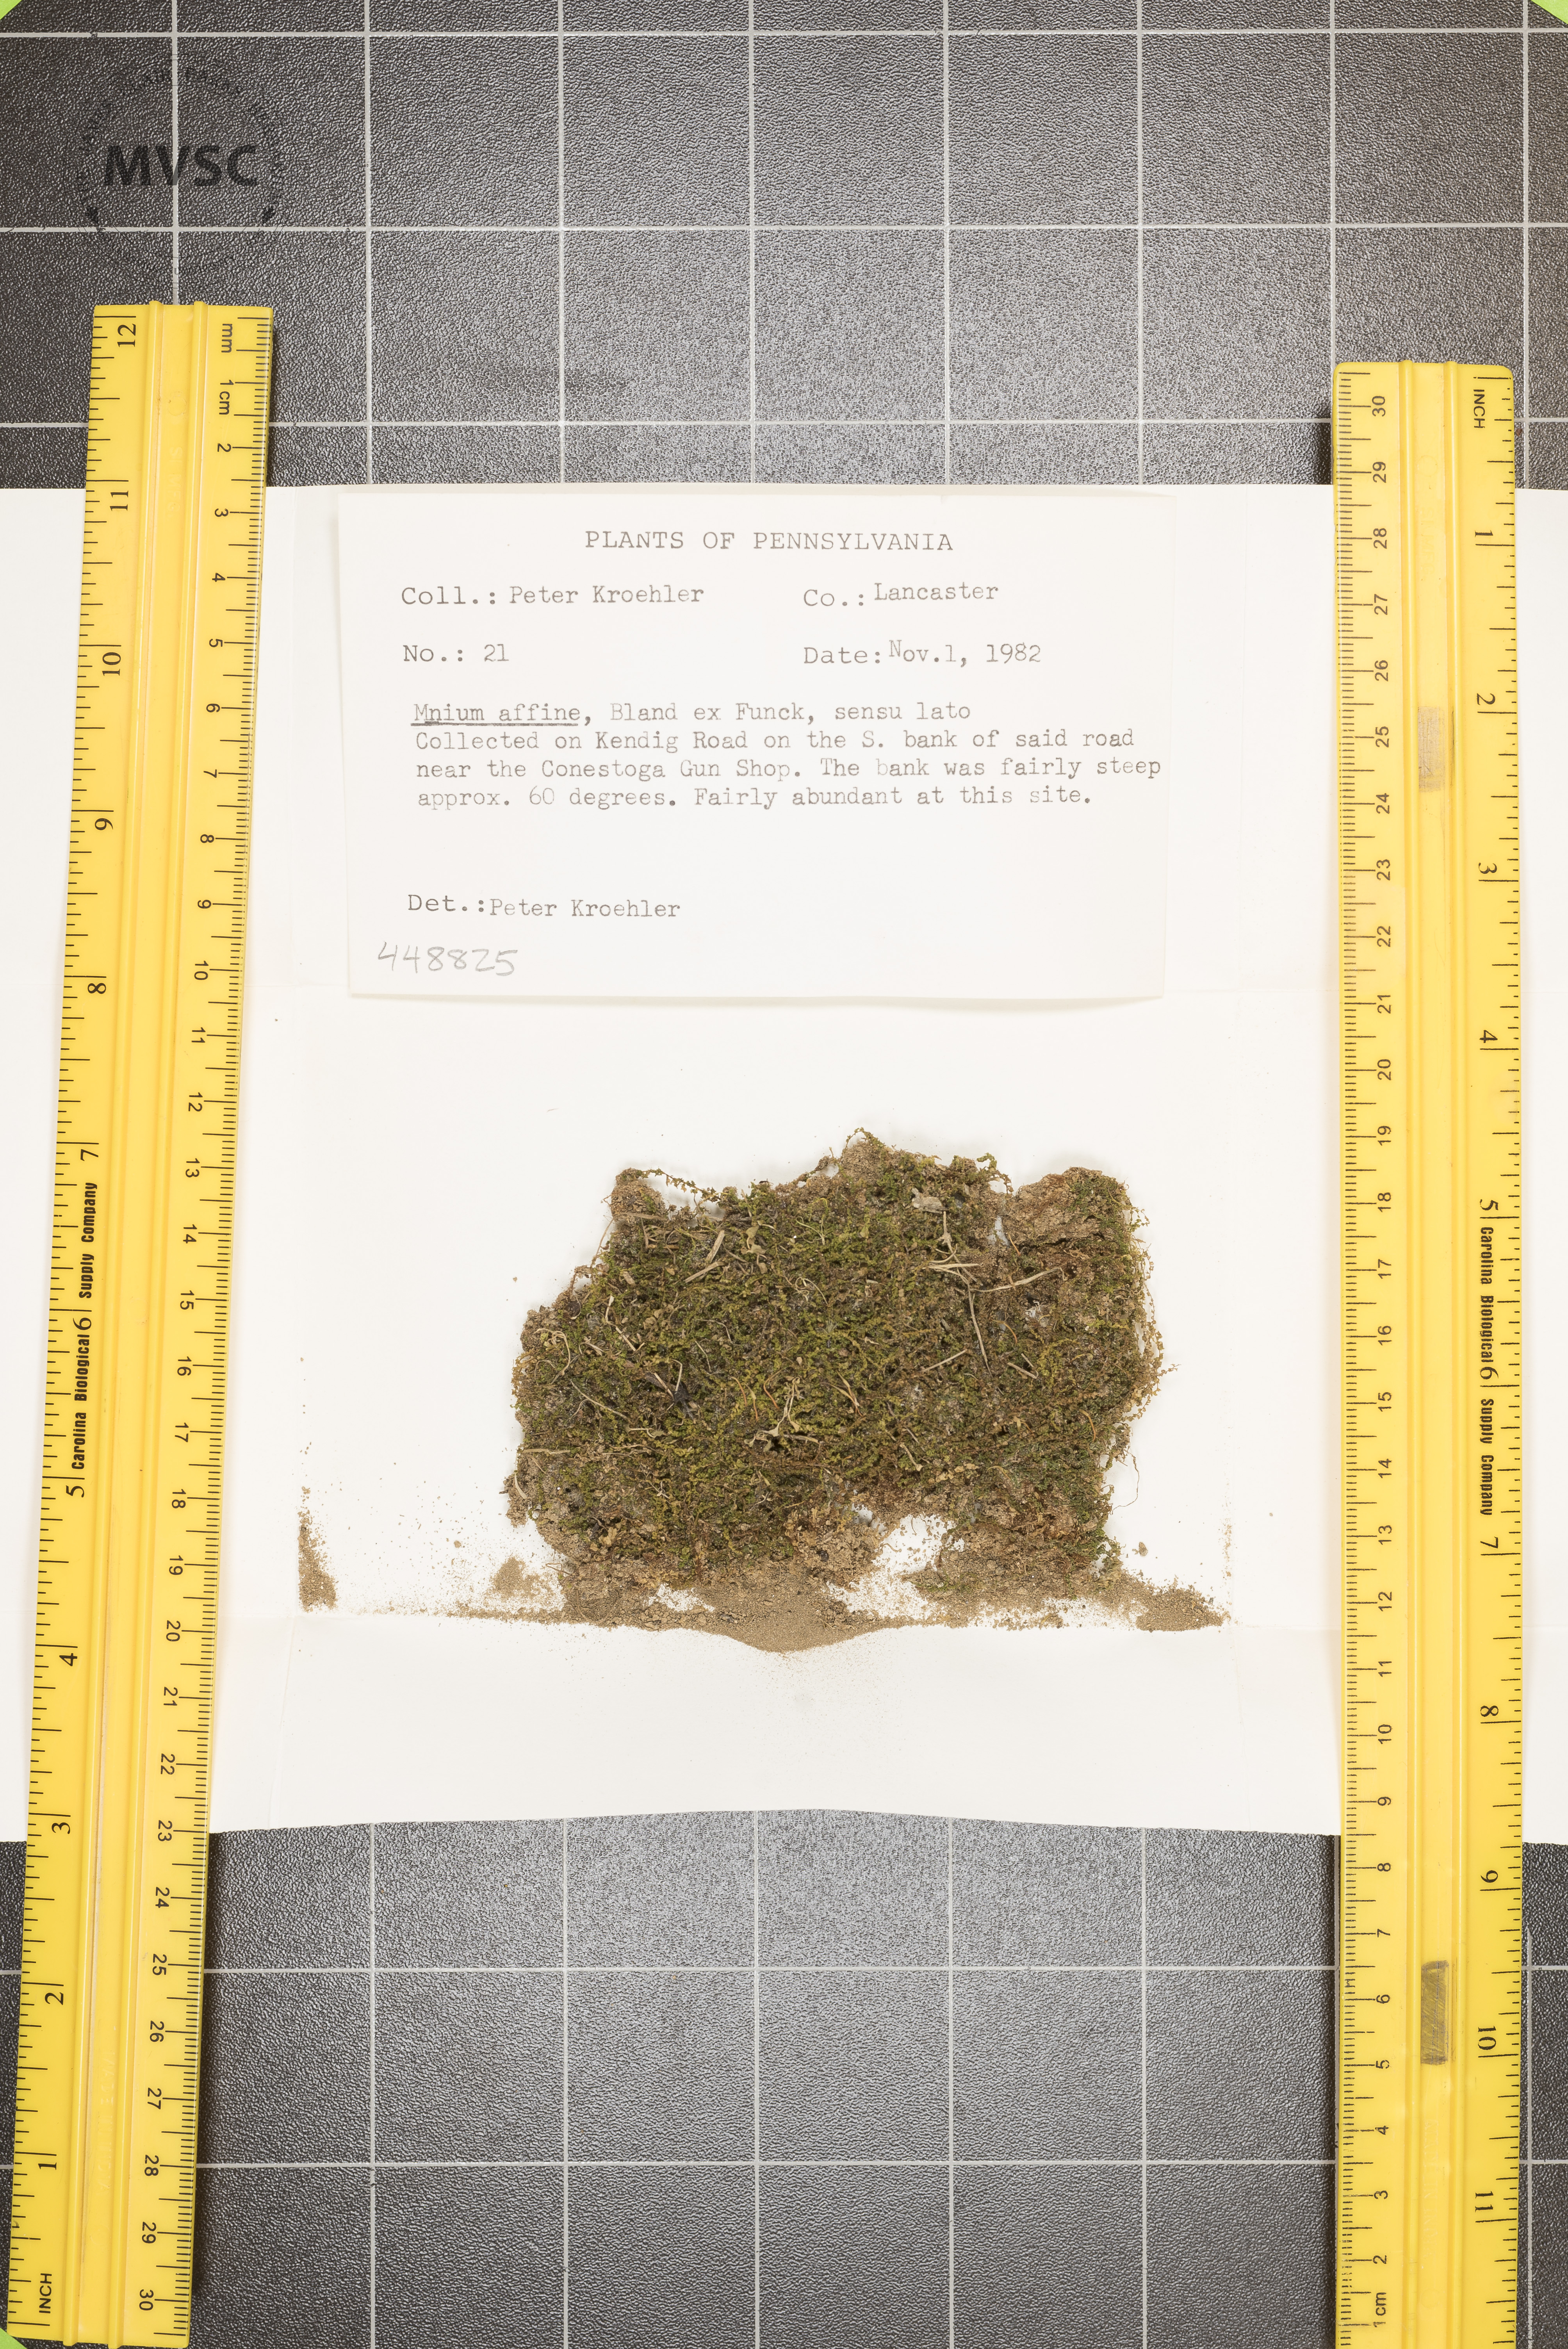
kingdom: Plantae
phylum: Bryophyta
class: Bryopsida
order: Bryales
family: Mniaceae
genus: Plagiomnium
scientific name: Plagiomnium affine
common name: Many-fruited thyme-moss
